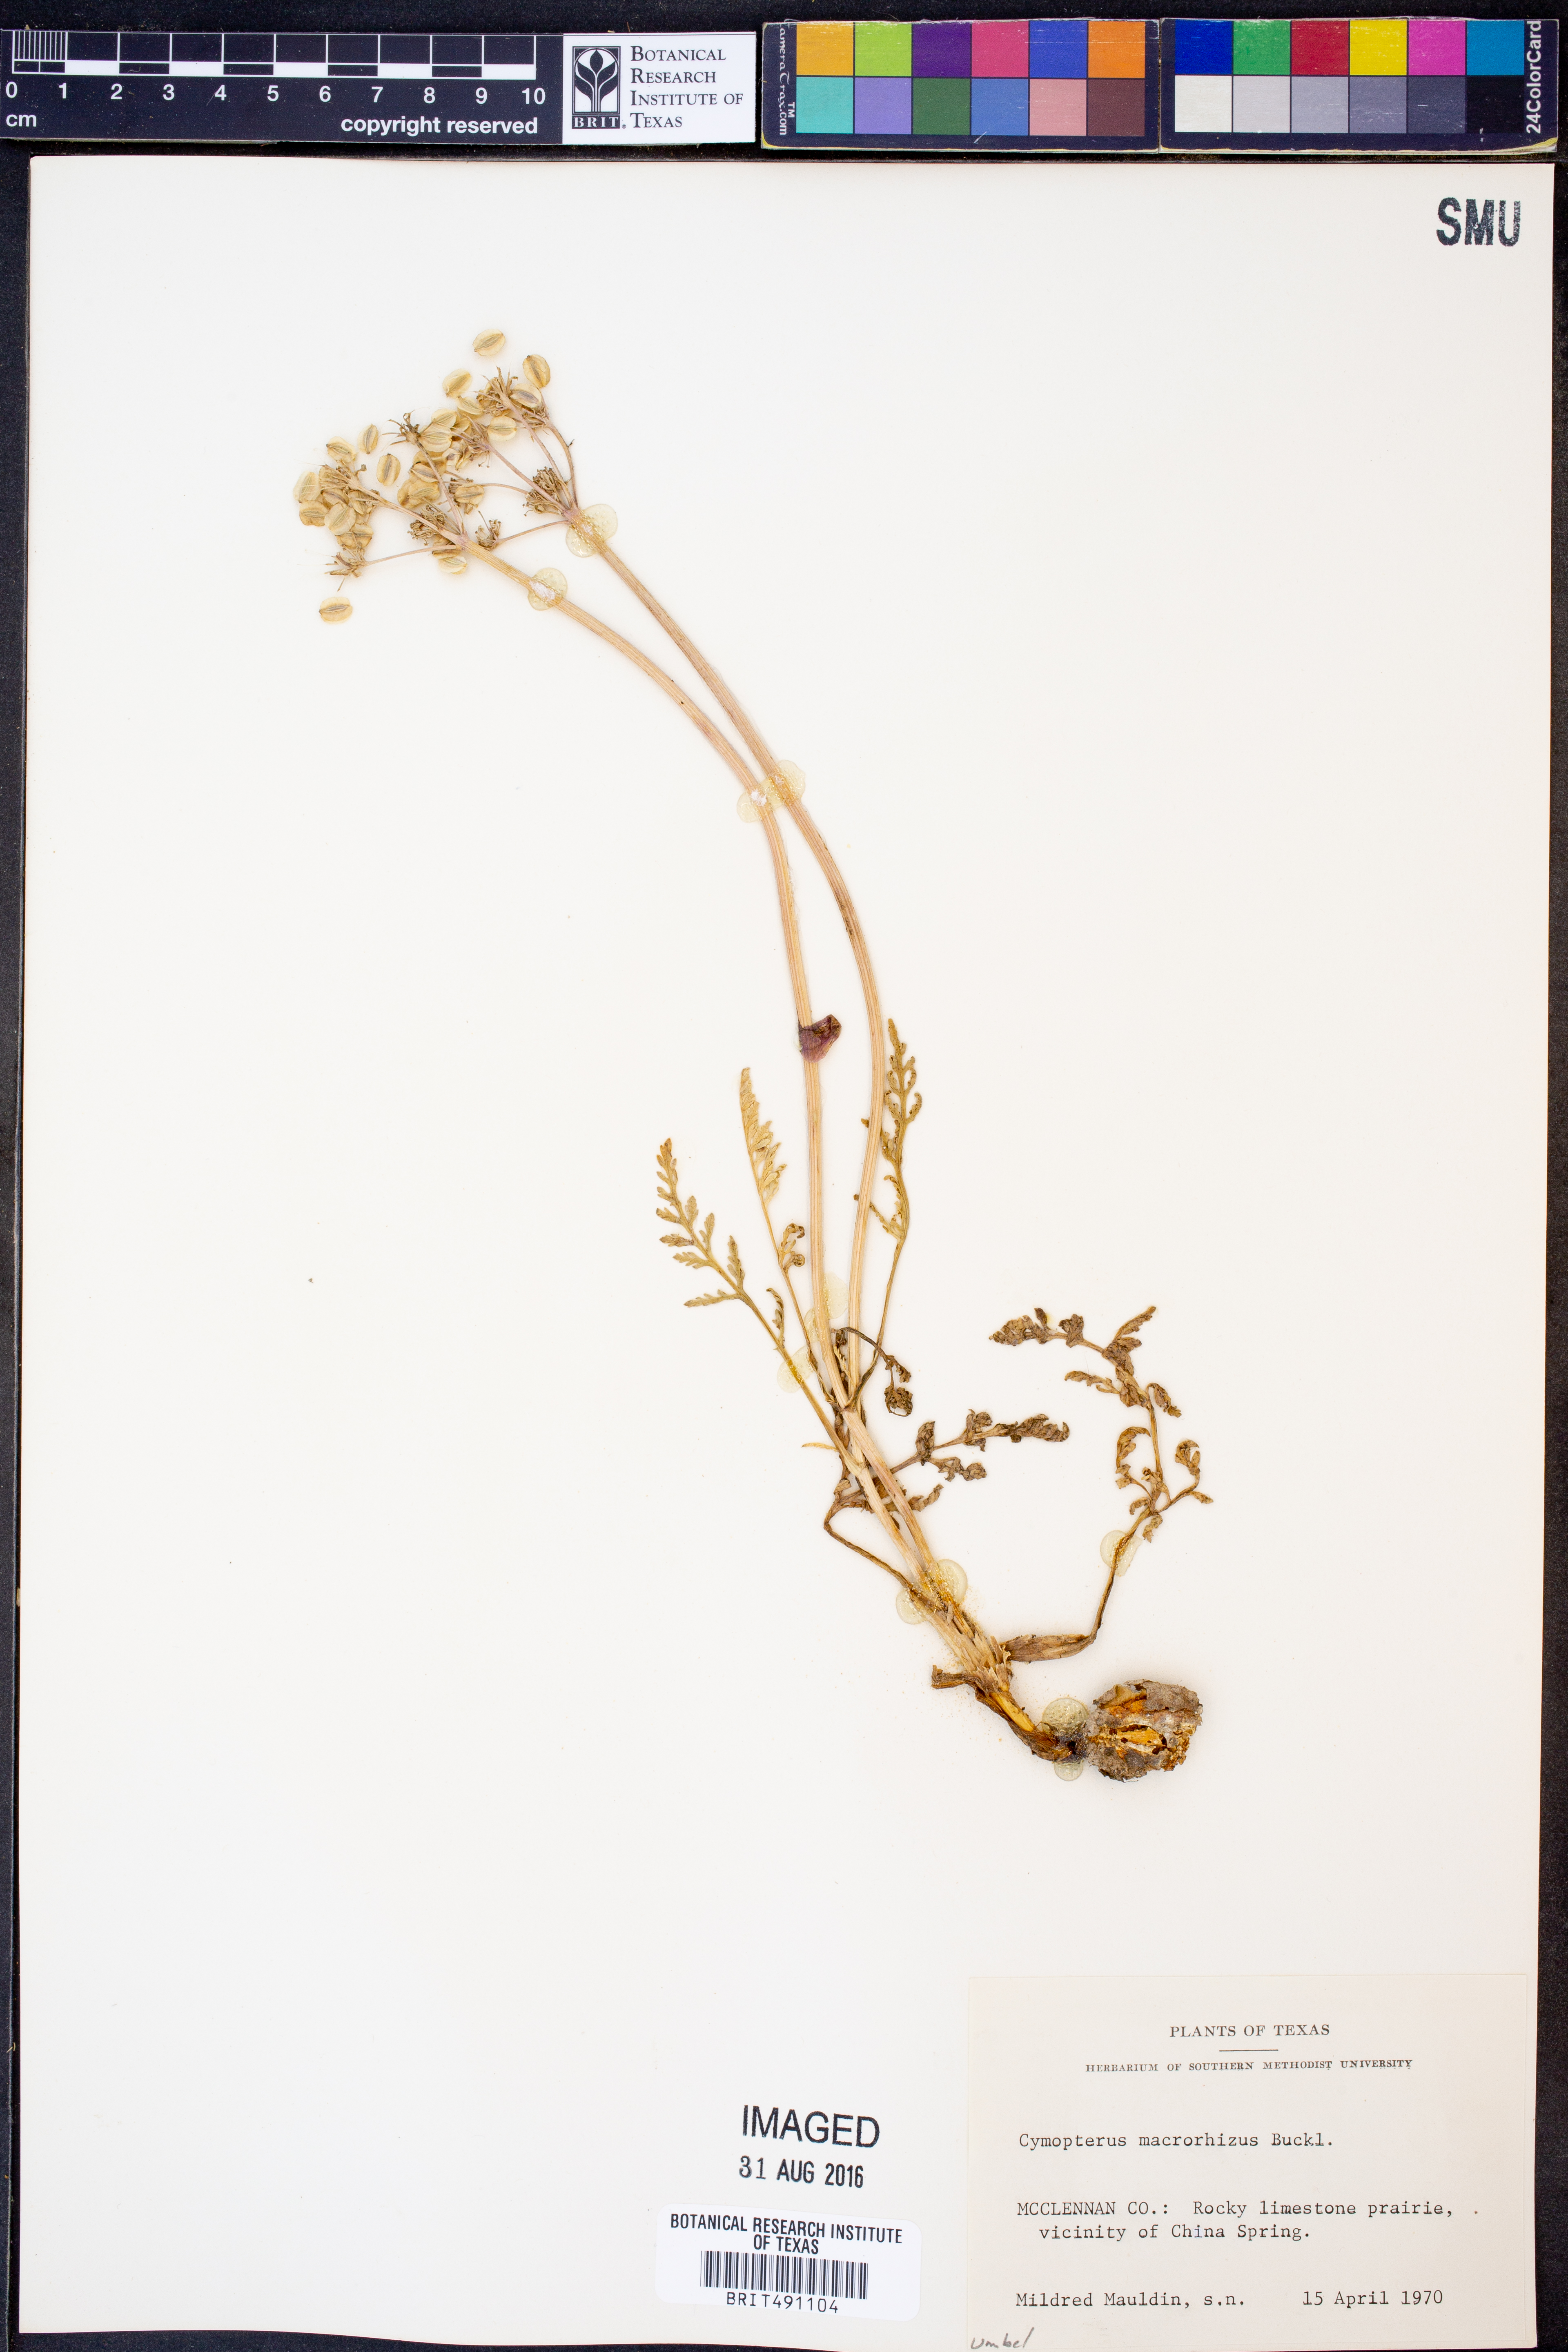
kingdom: Plantae
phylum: Tracheophyta
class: Magnoliopsida
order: Apiales
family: Apiaceae
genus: Vesper
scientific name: Vesper macrorhizus
